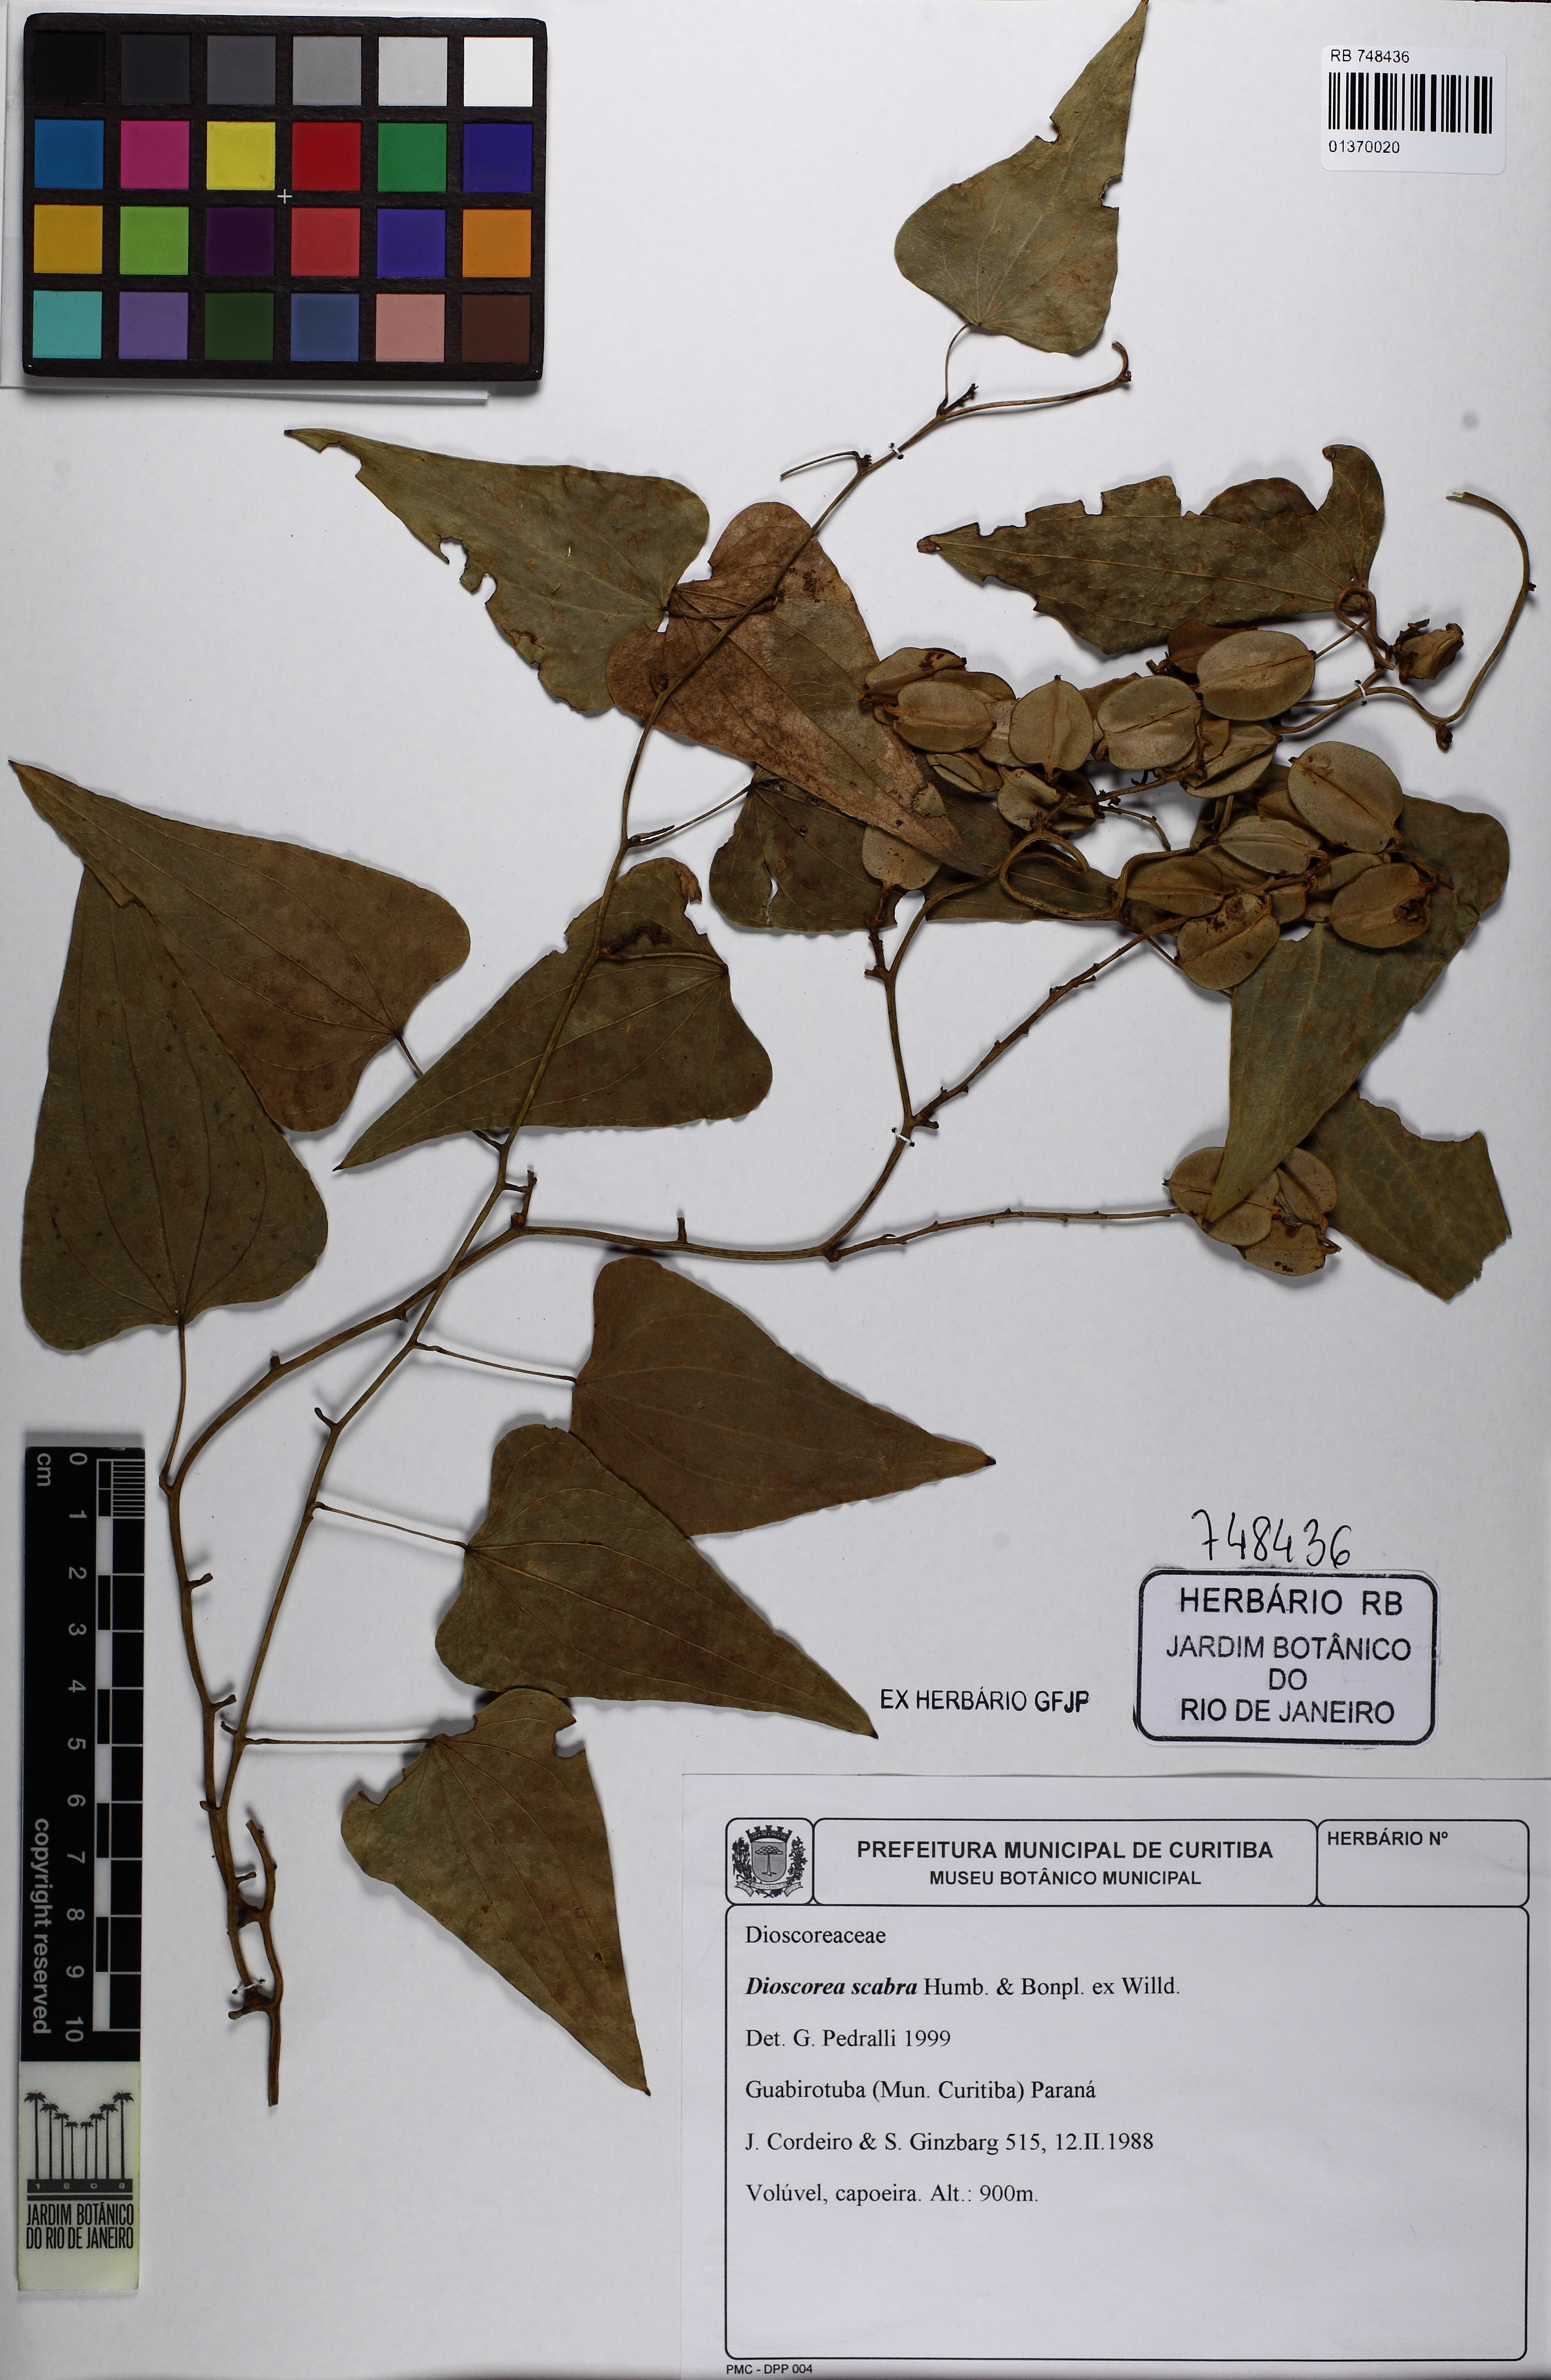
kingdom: Plantae
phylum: Tracheophyta
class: Liliopsida
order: Dioscoreales
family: Dioscoreaceae
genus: Dioscorea
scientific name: Dioscorea scabra
